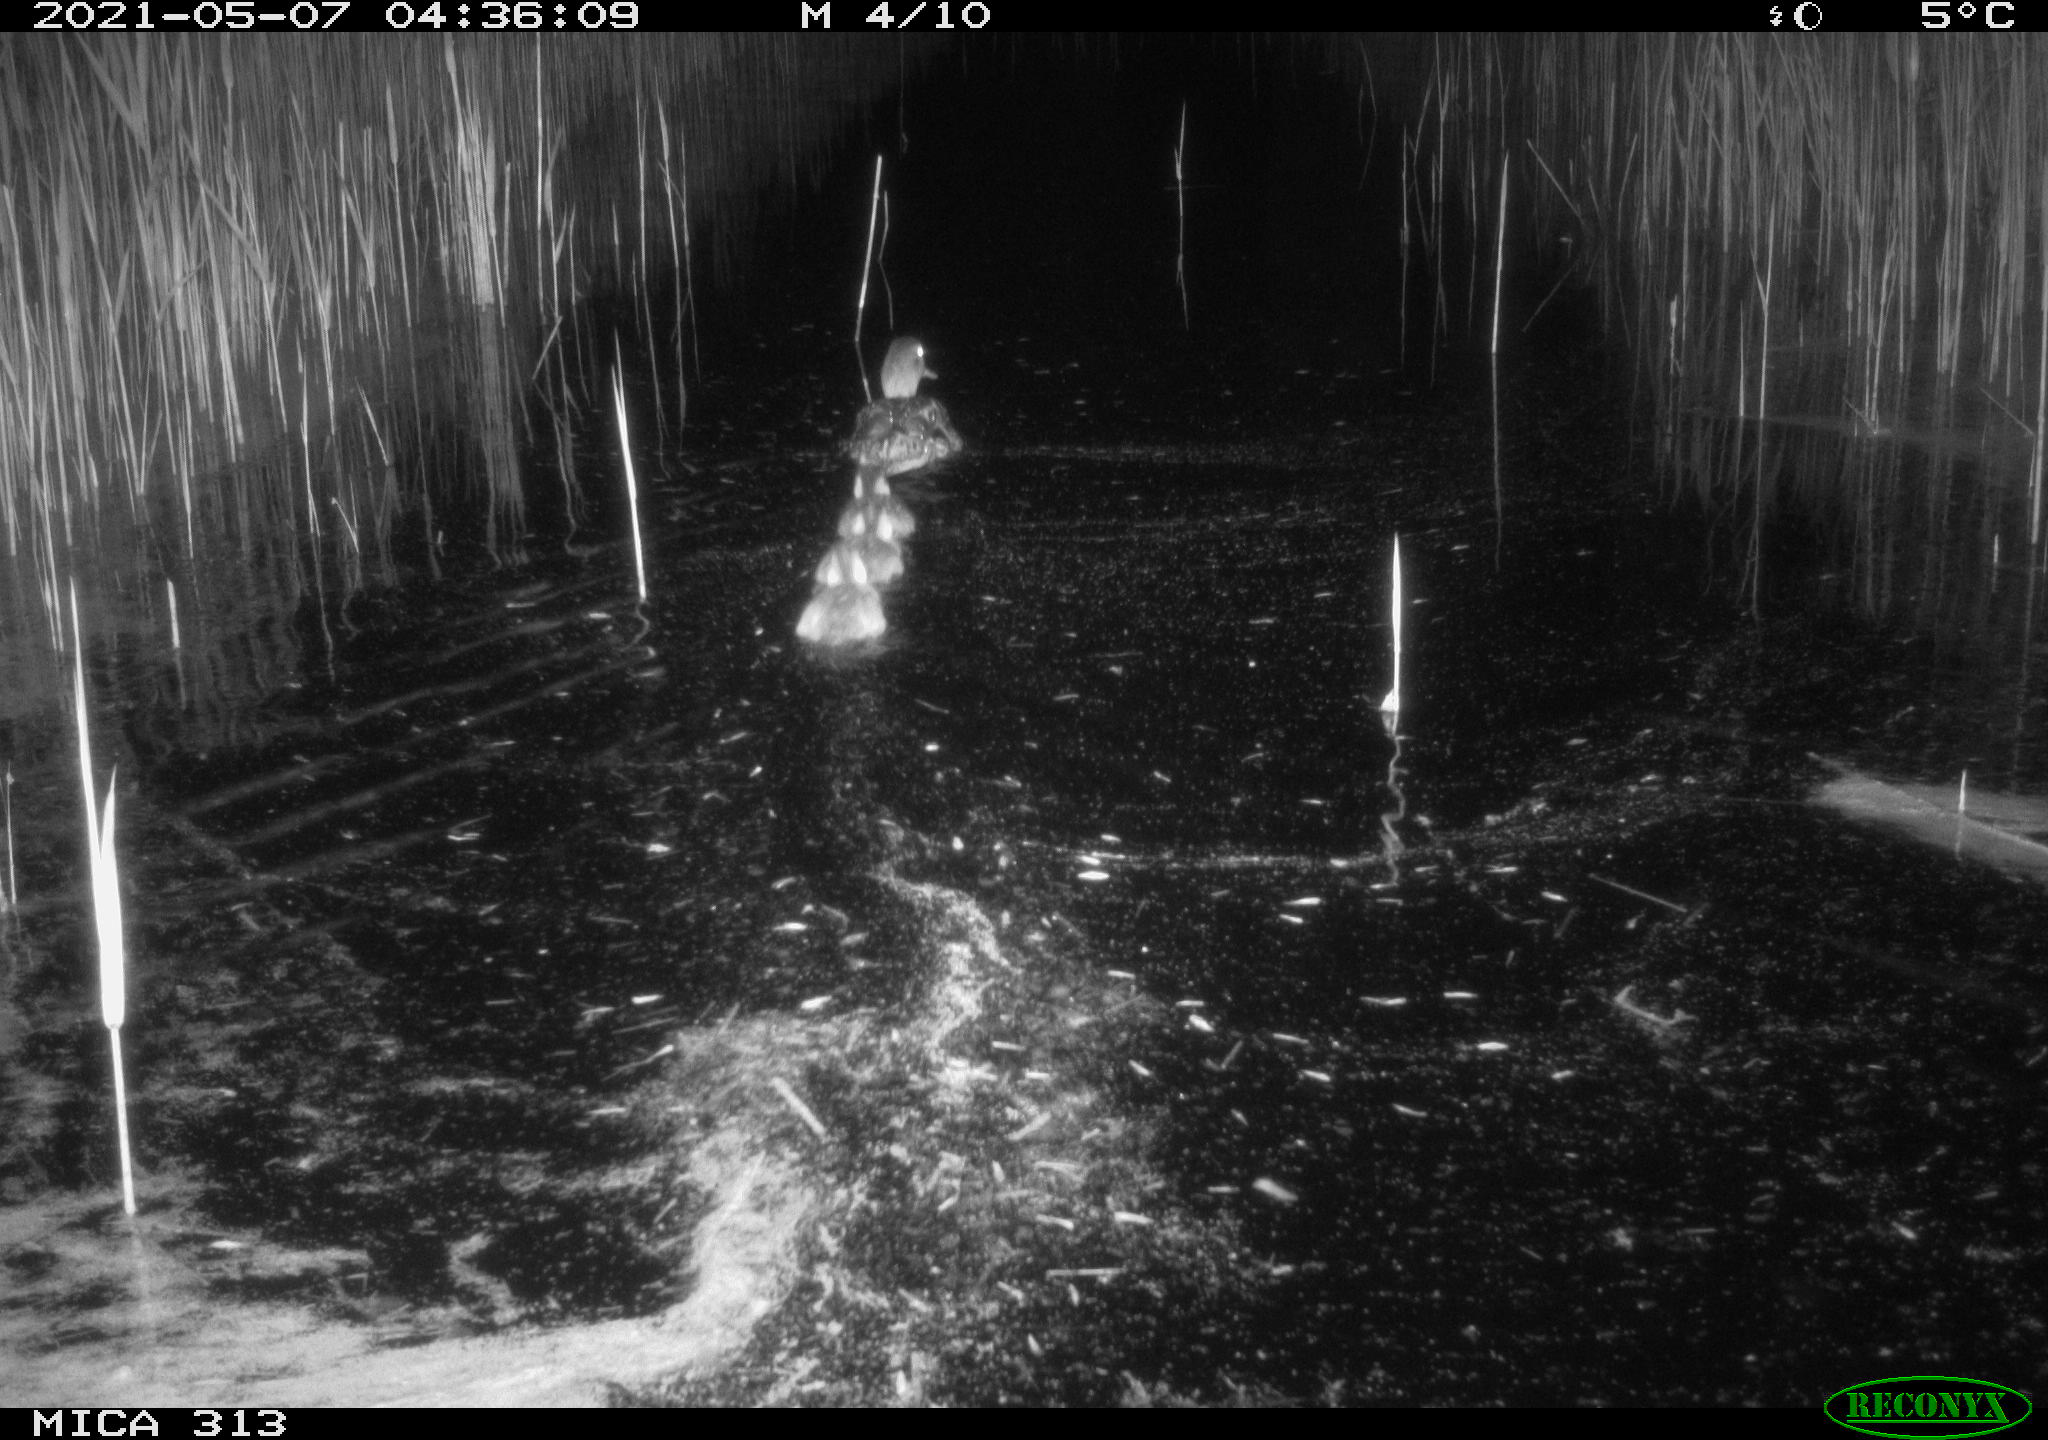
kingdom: Animalia
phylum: Chordata
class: Aves
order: Anseriformes
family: Anatidae
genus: Anas
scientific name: Anas platyrhynchos
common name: Mallard
